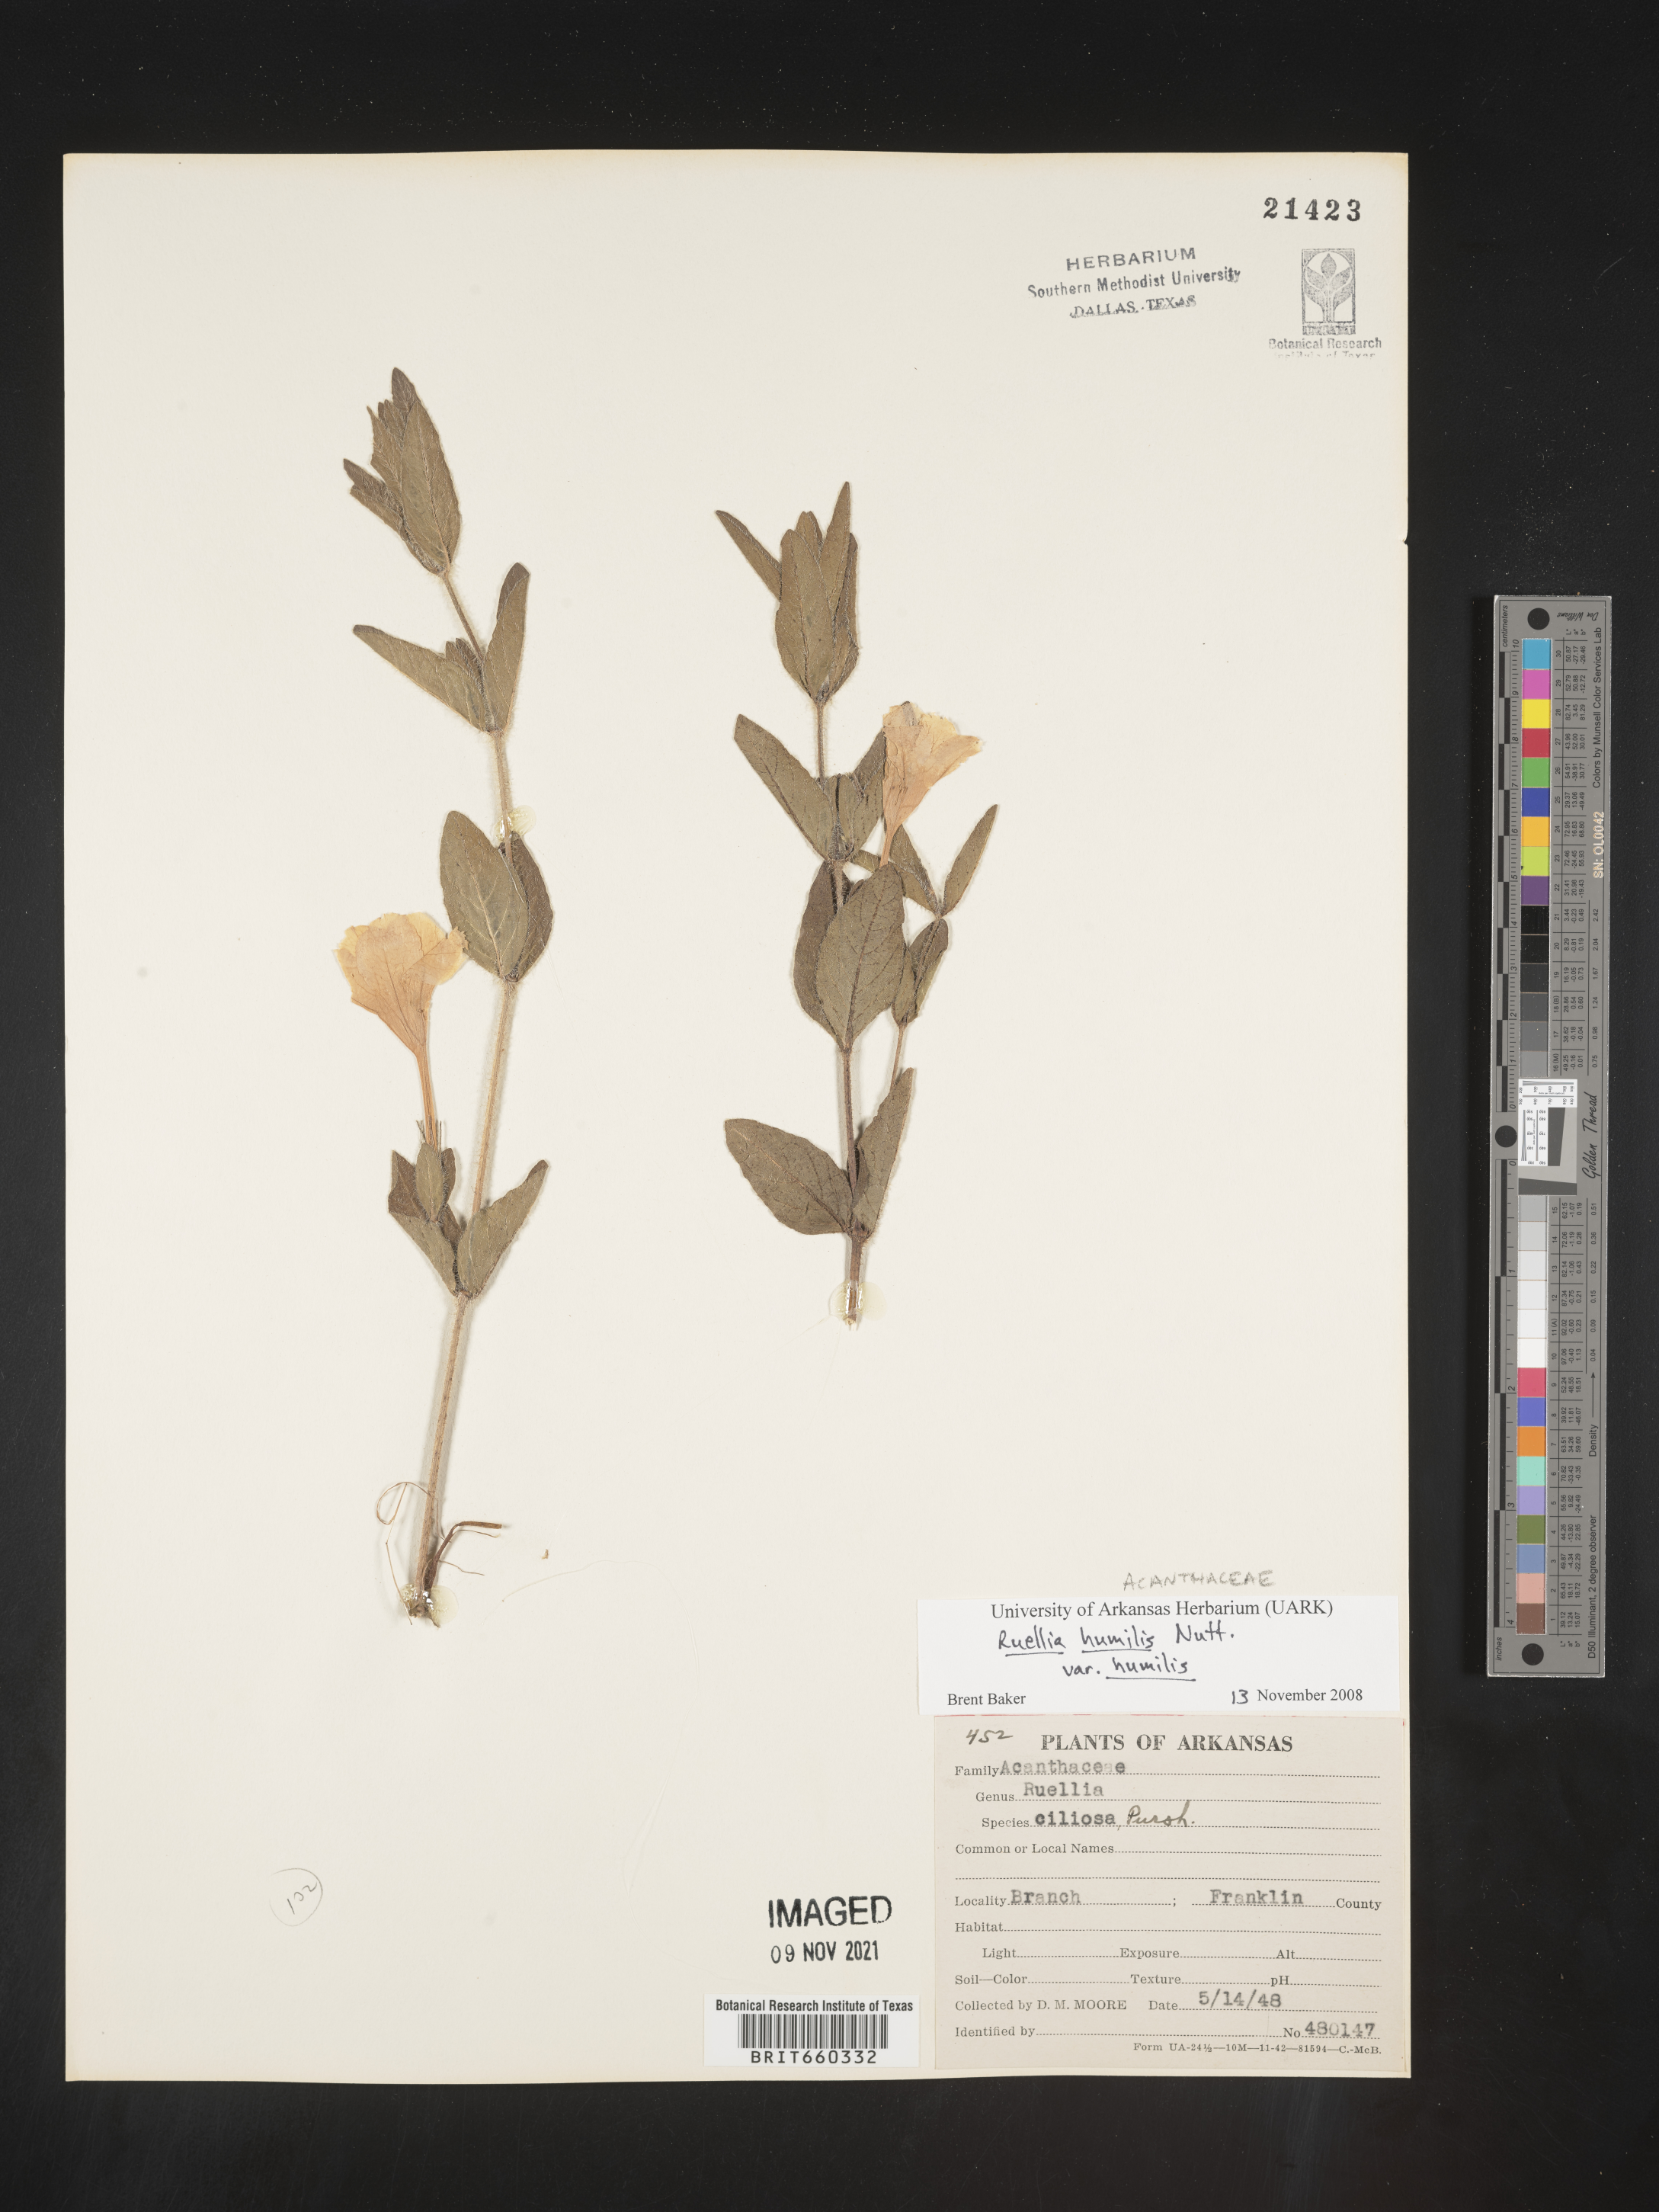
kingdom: Plantae
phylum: Tracheophyta
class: Magnoliopsida
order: Lamiales
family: Acanthaceae
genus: Ruellia
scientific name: Ruellia humilis
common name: Fringe-leaf ruellia
